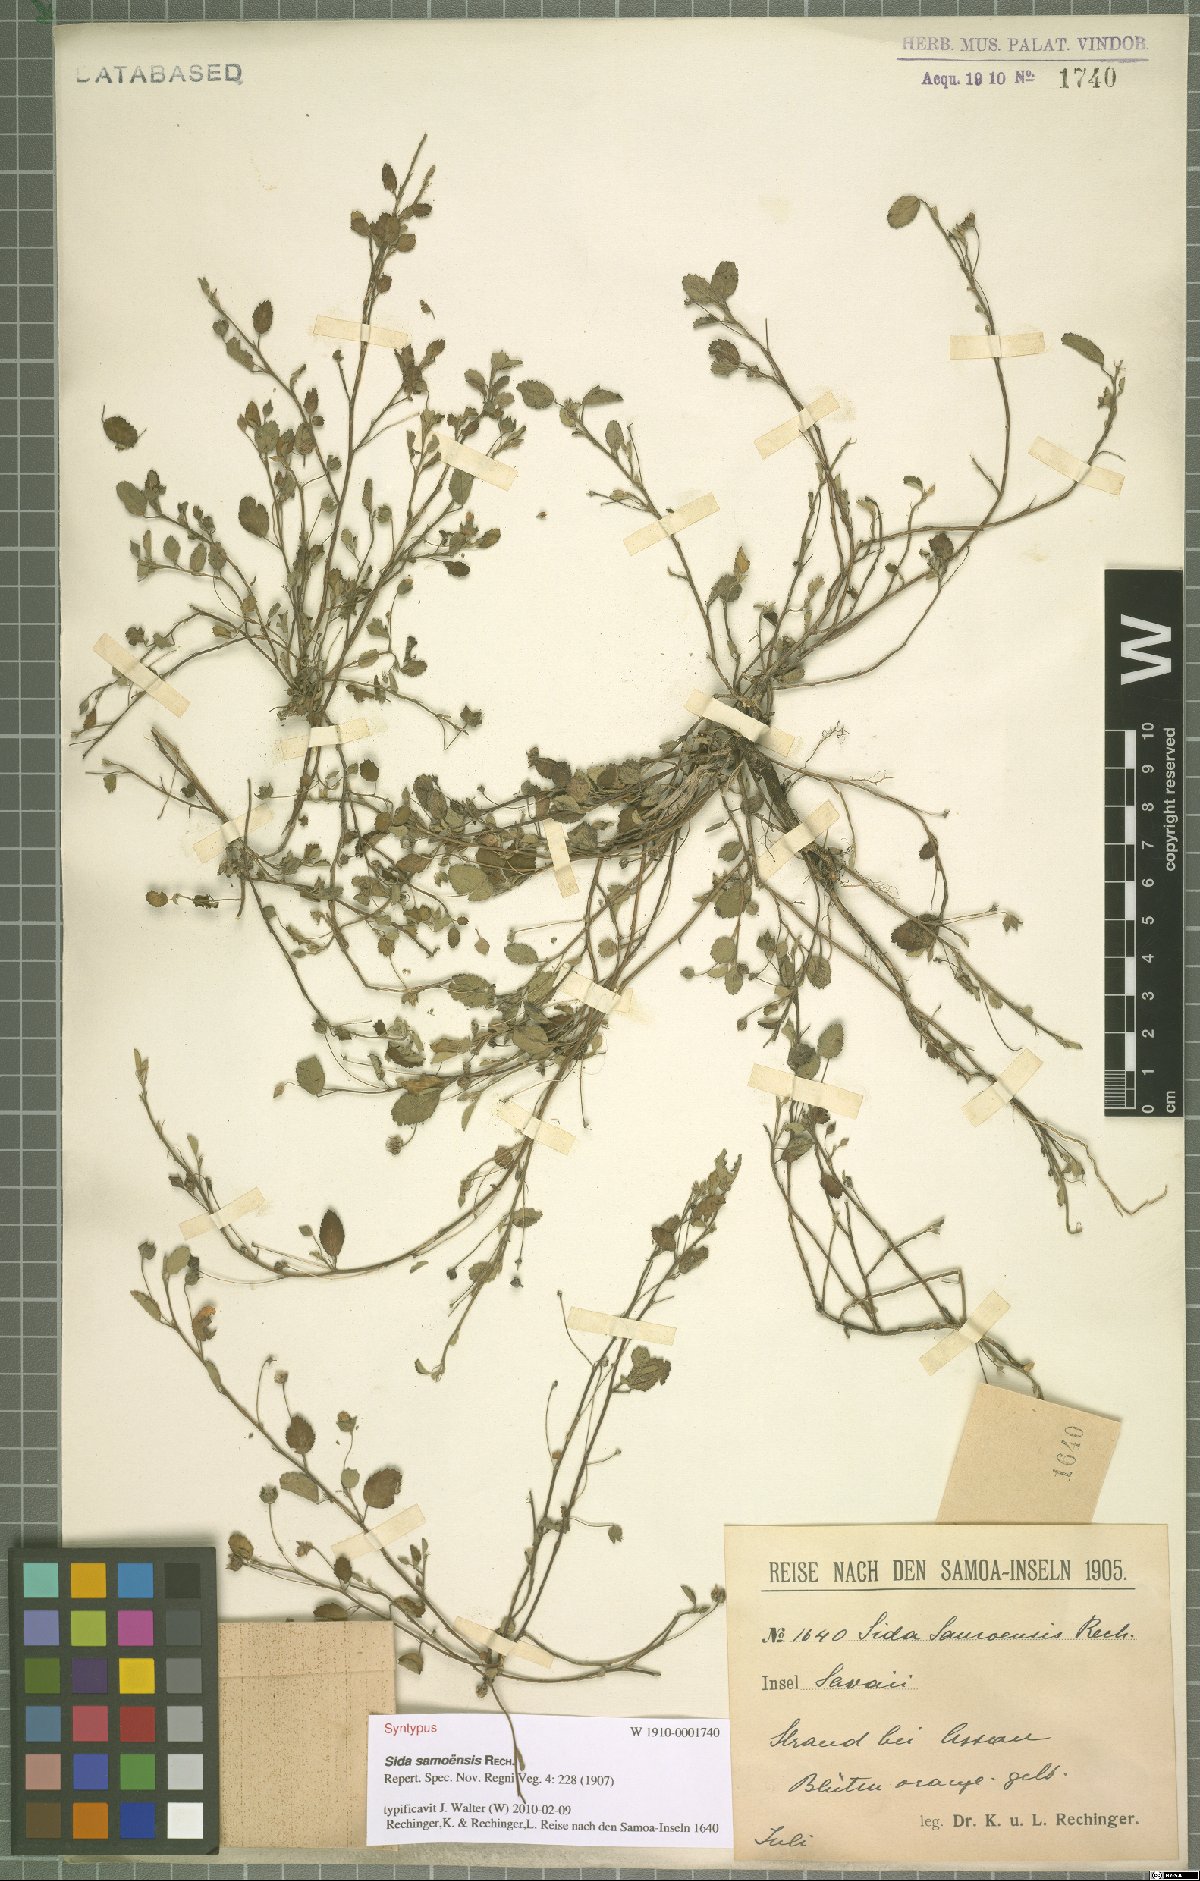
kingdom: Plantae
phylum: Tracheophyta
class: Magnoliopsida
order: Malvales
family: Malvaceae
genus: Sida
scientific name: Sida pusilla
